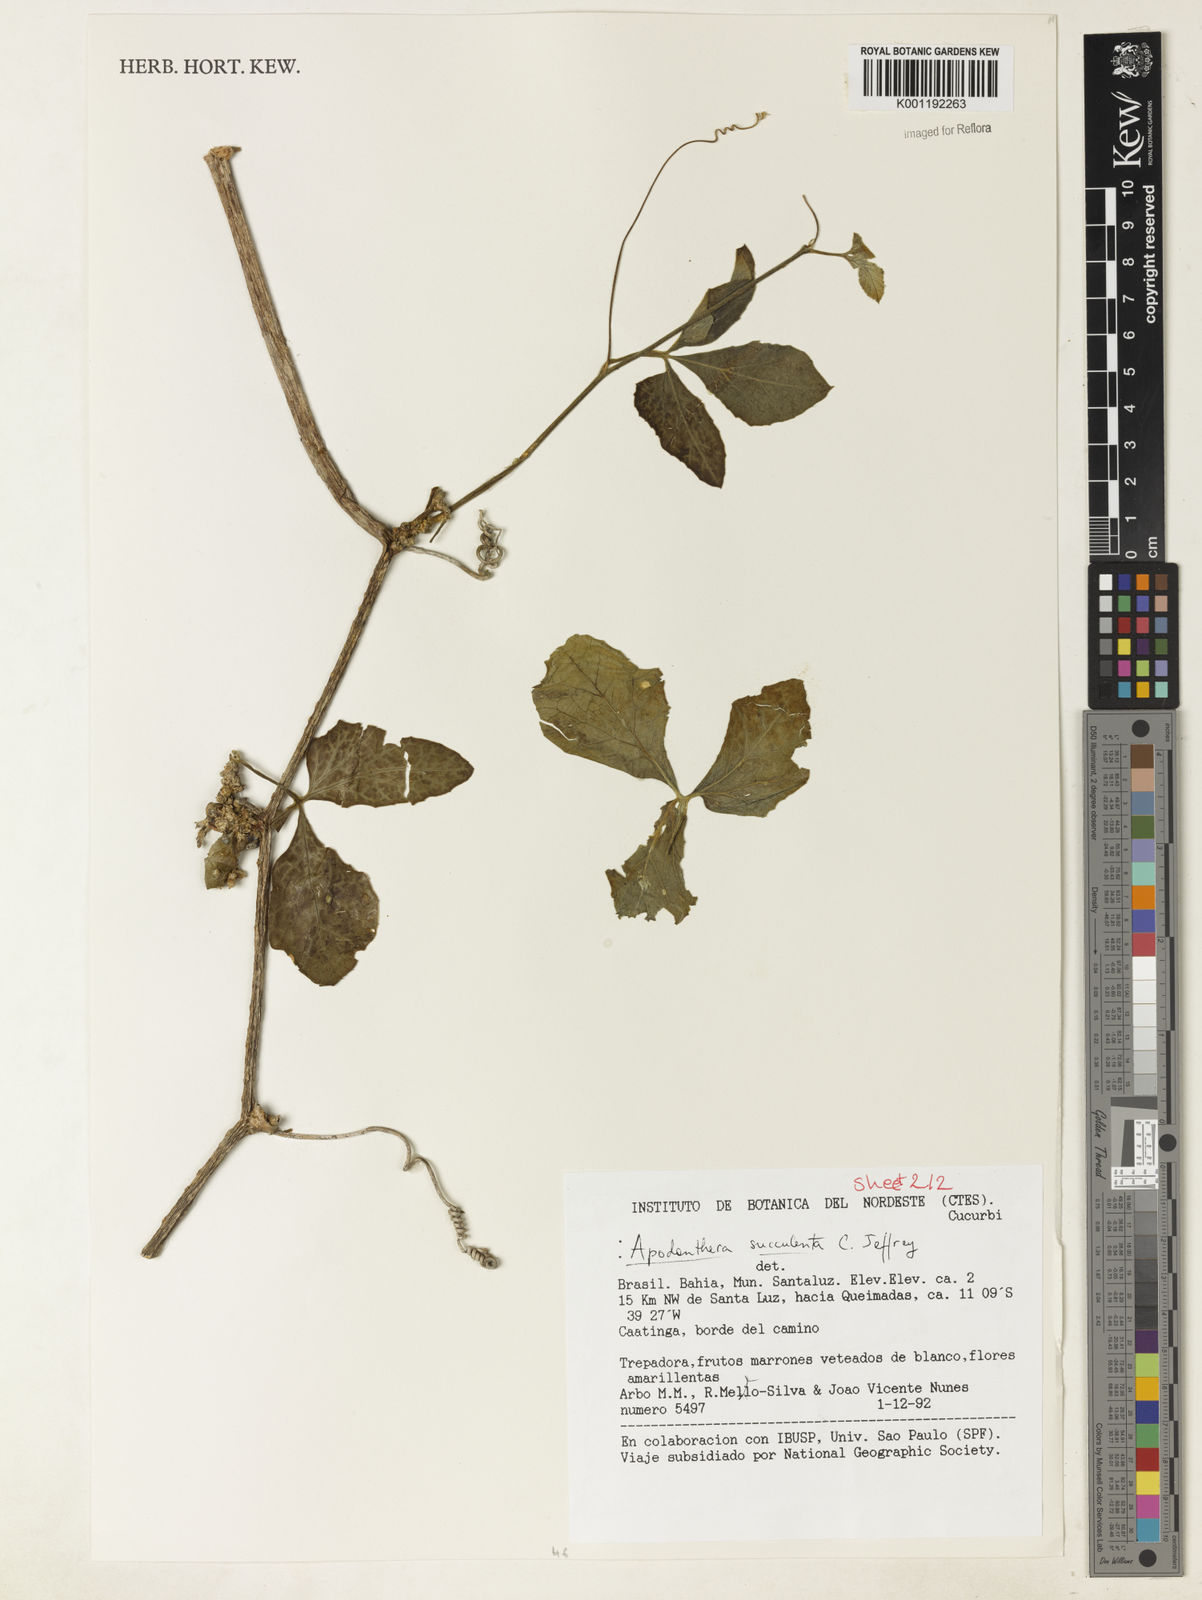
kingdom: Plantae
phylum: Tracheophyta
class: Magnoliopsida
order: Cucurbitales
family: Cucurbitaceae
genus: Apodanthera
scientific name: Apodanthera villosa
